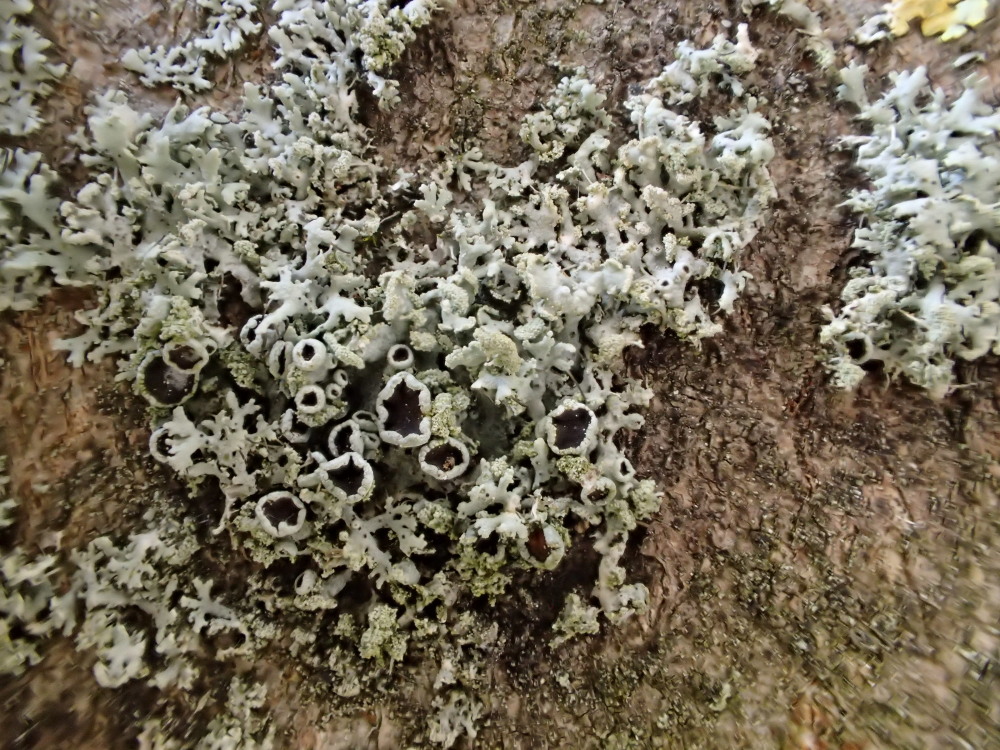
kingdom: Fungi
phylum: Ascomycota
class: Lecanoromycetes
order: Caliciales
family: Physciaceae
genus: Physcia
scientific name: Physcia tenella
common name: spæd rosetlav
